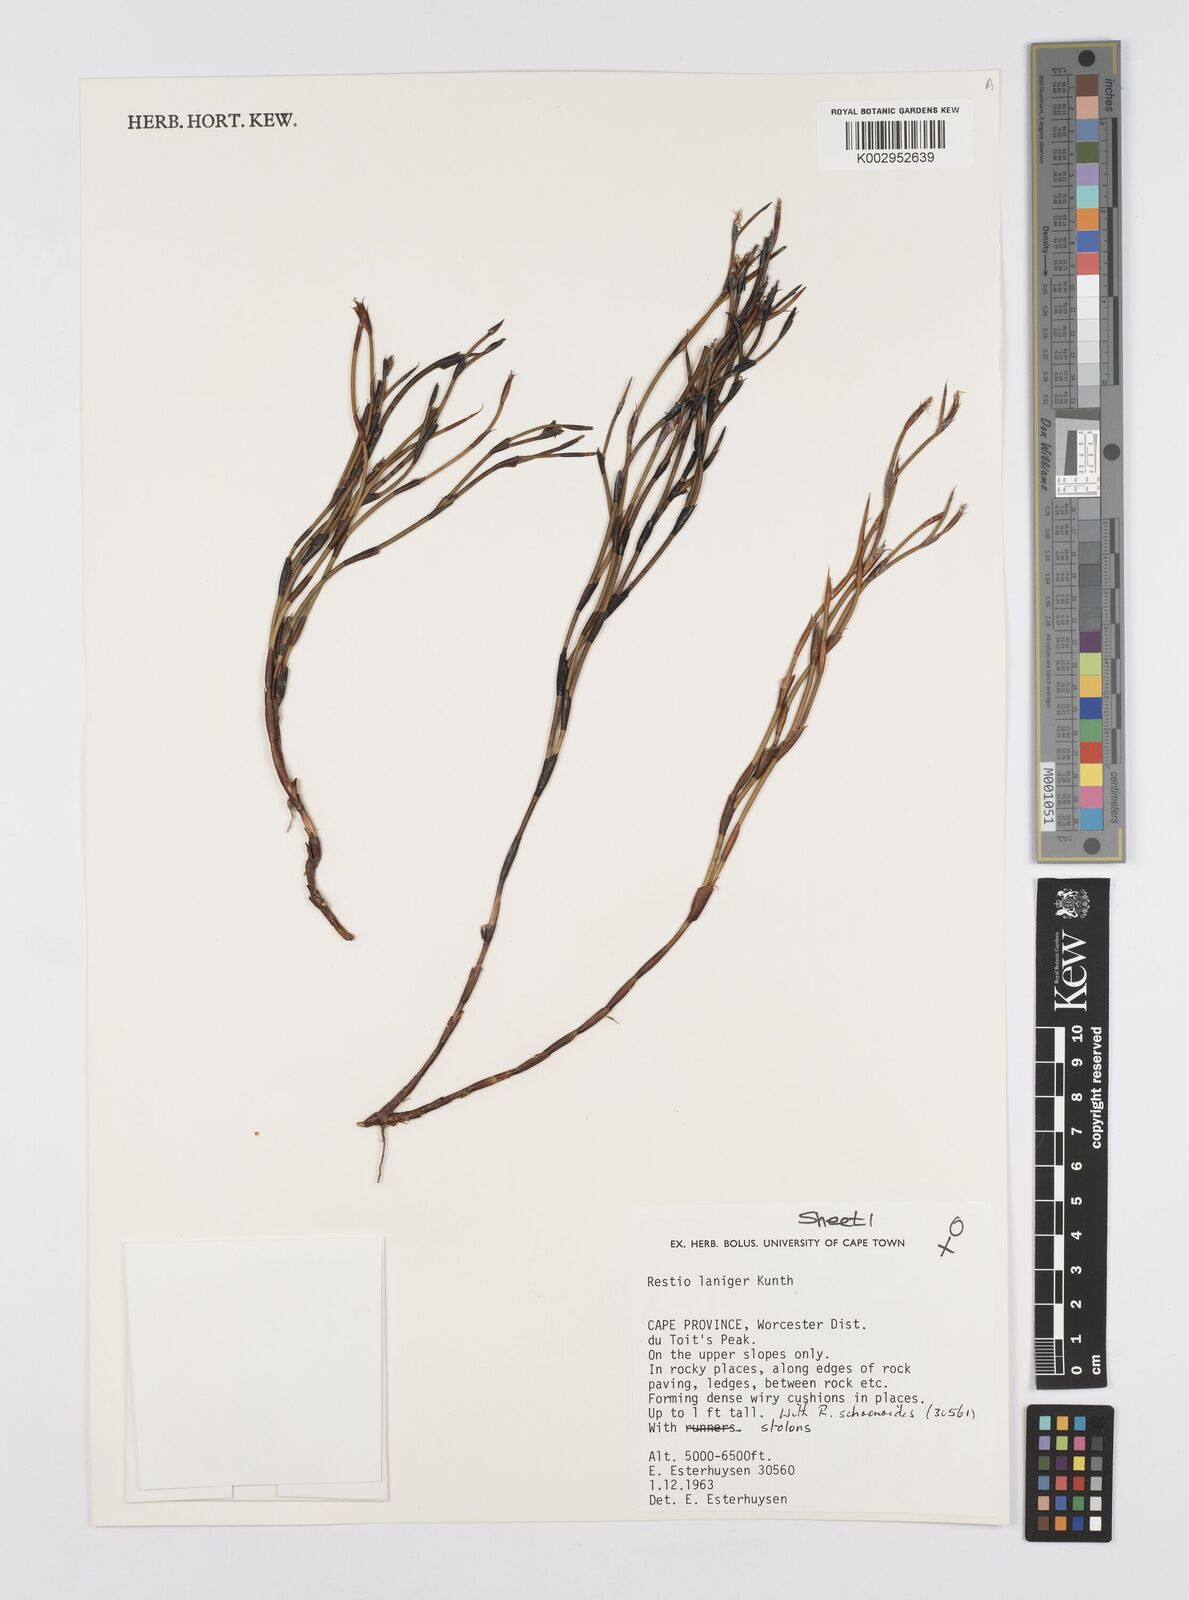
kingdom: Plantae
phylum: Tracheophyta
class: Liliopsida
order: Poales
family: Restionaceae
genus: Restio
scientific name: Restio laniger
